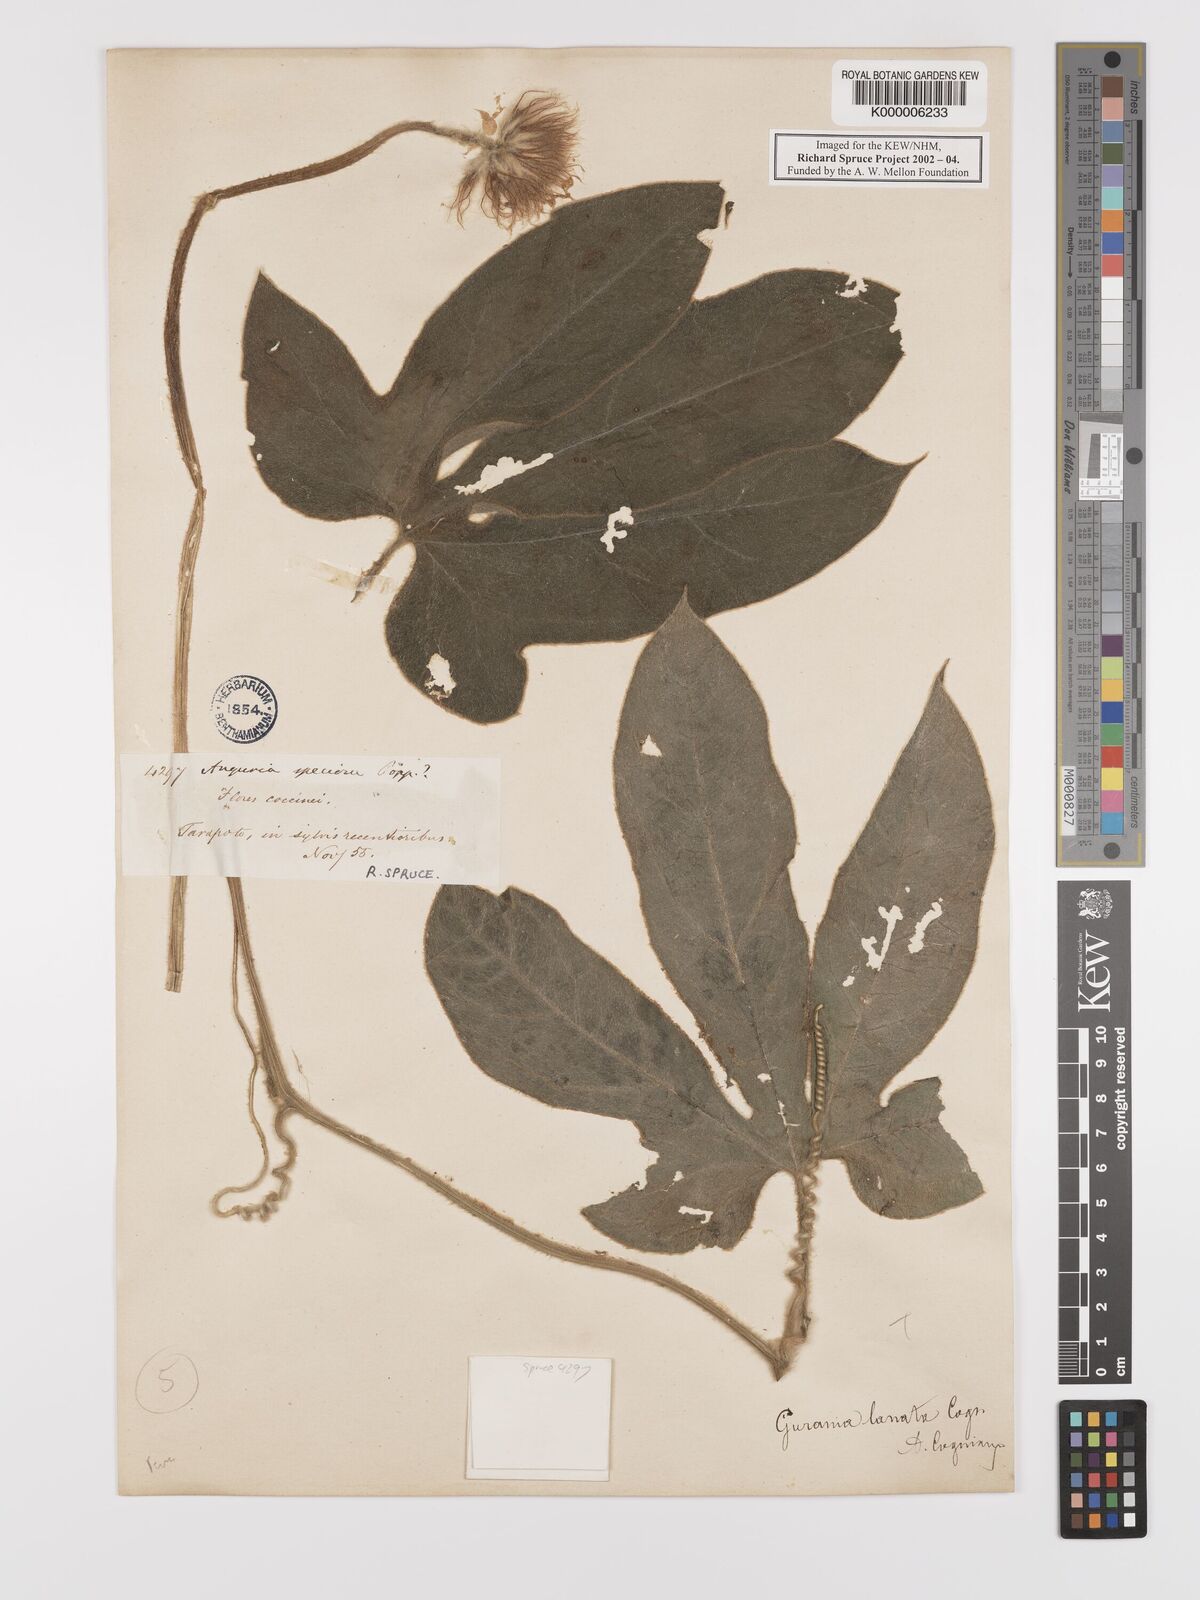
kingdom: Plantae
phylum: Tracheophyta
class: Magnoliopsida
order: Cucurbitales
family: Cucurbitaceae
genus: Gurania
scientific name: Gurania eriantha
